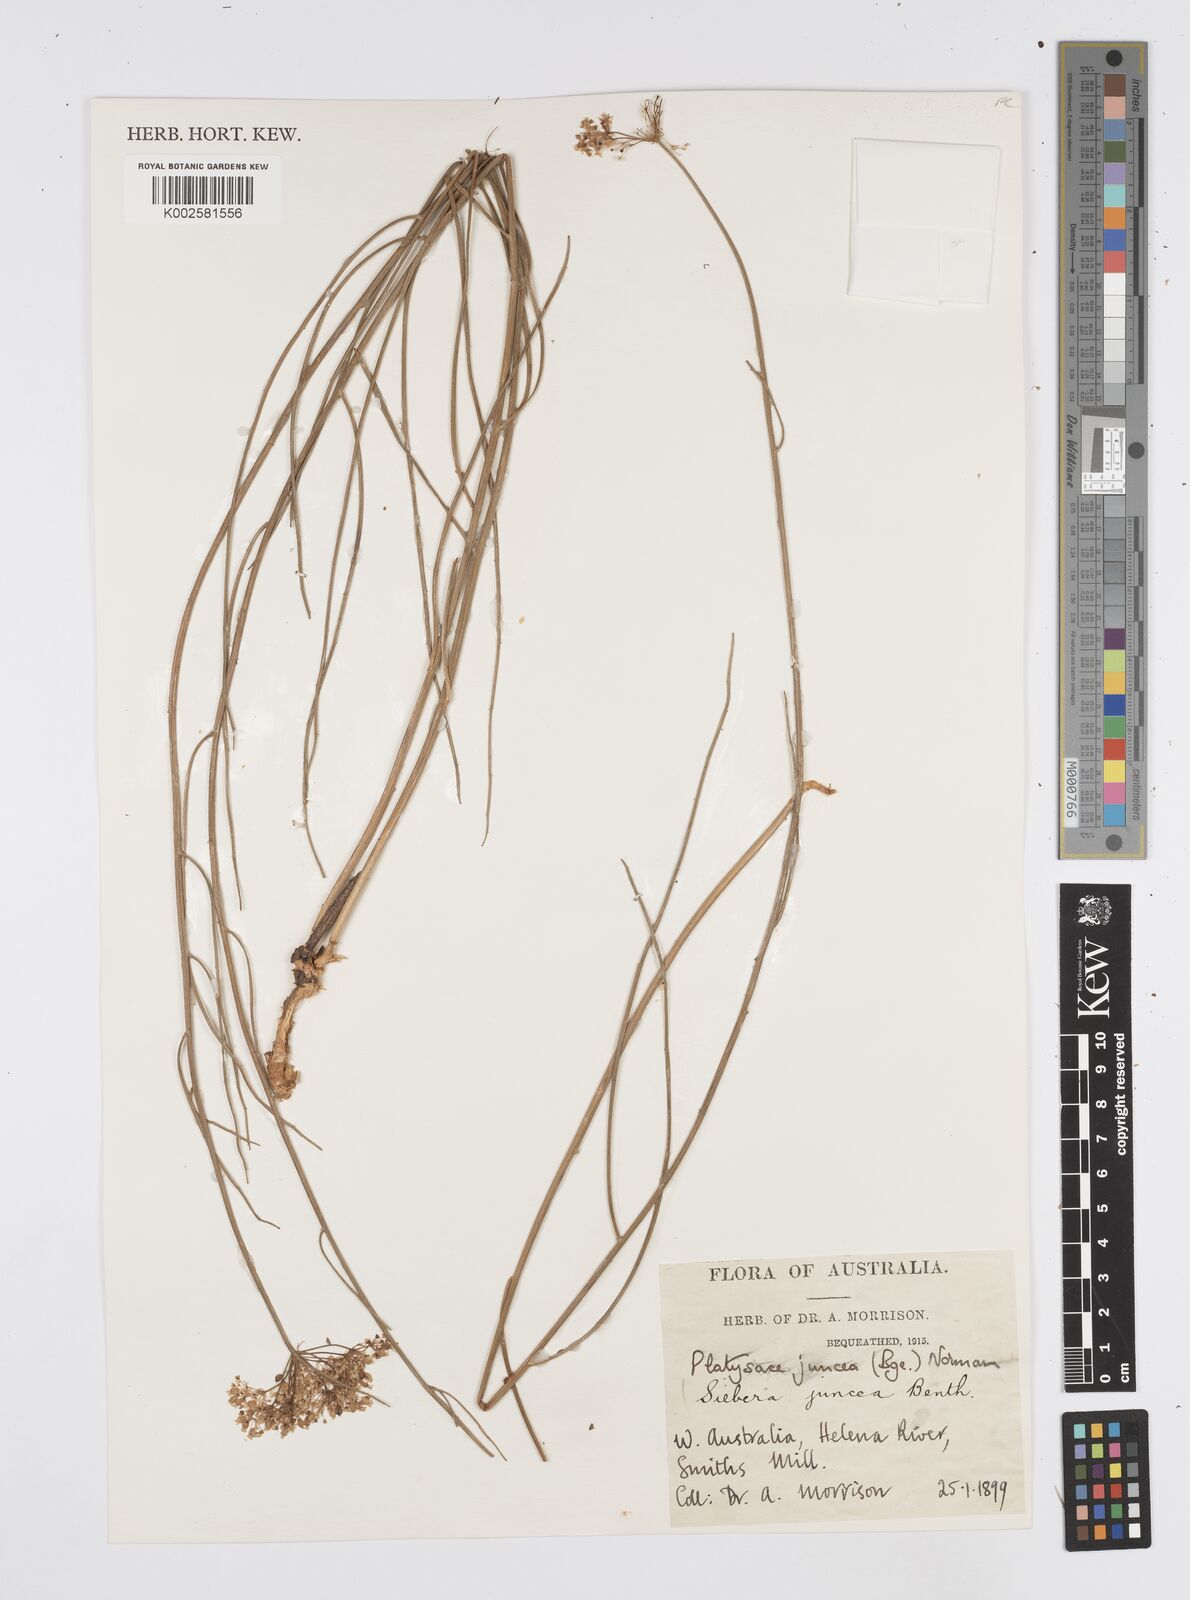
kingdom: Plantae
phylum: Tracheophyta
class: Magnoliopsida
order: Apiales
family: Apiaceae
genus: Platysace
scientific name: Platysace juncea
